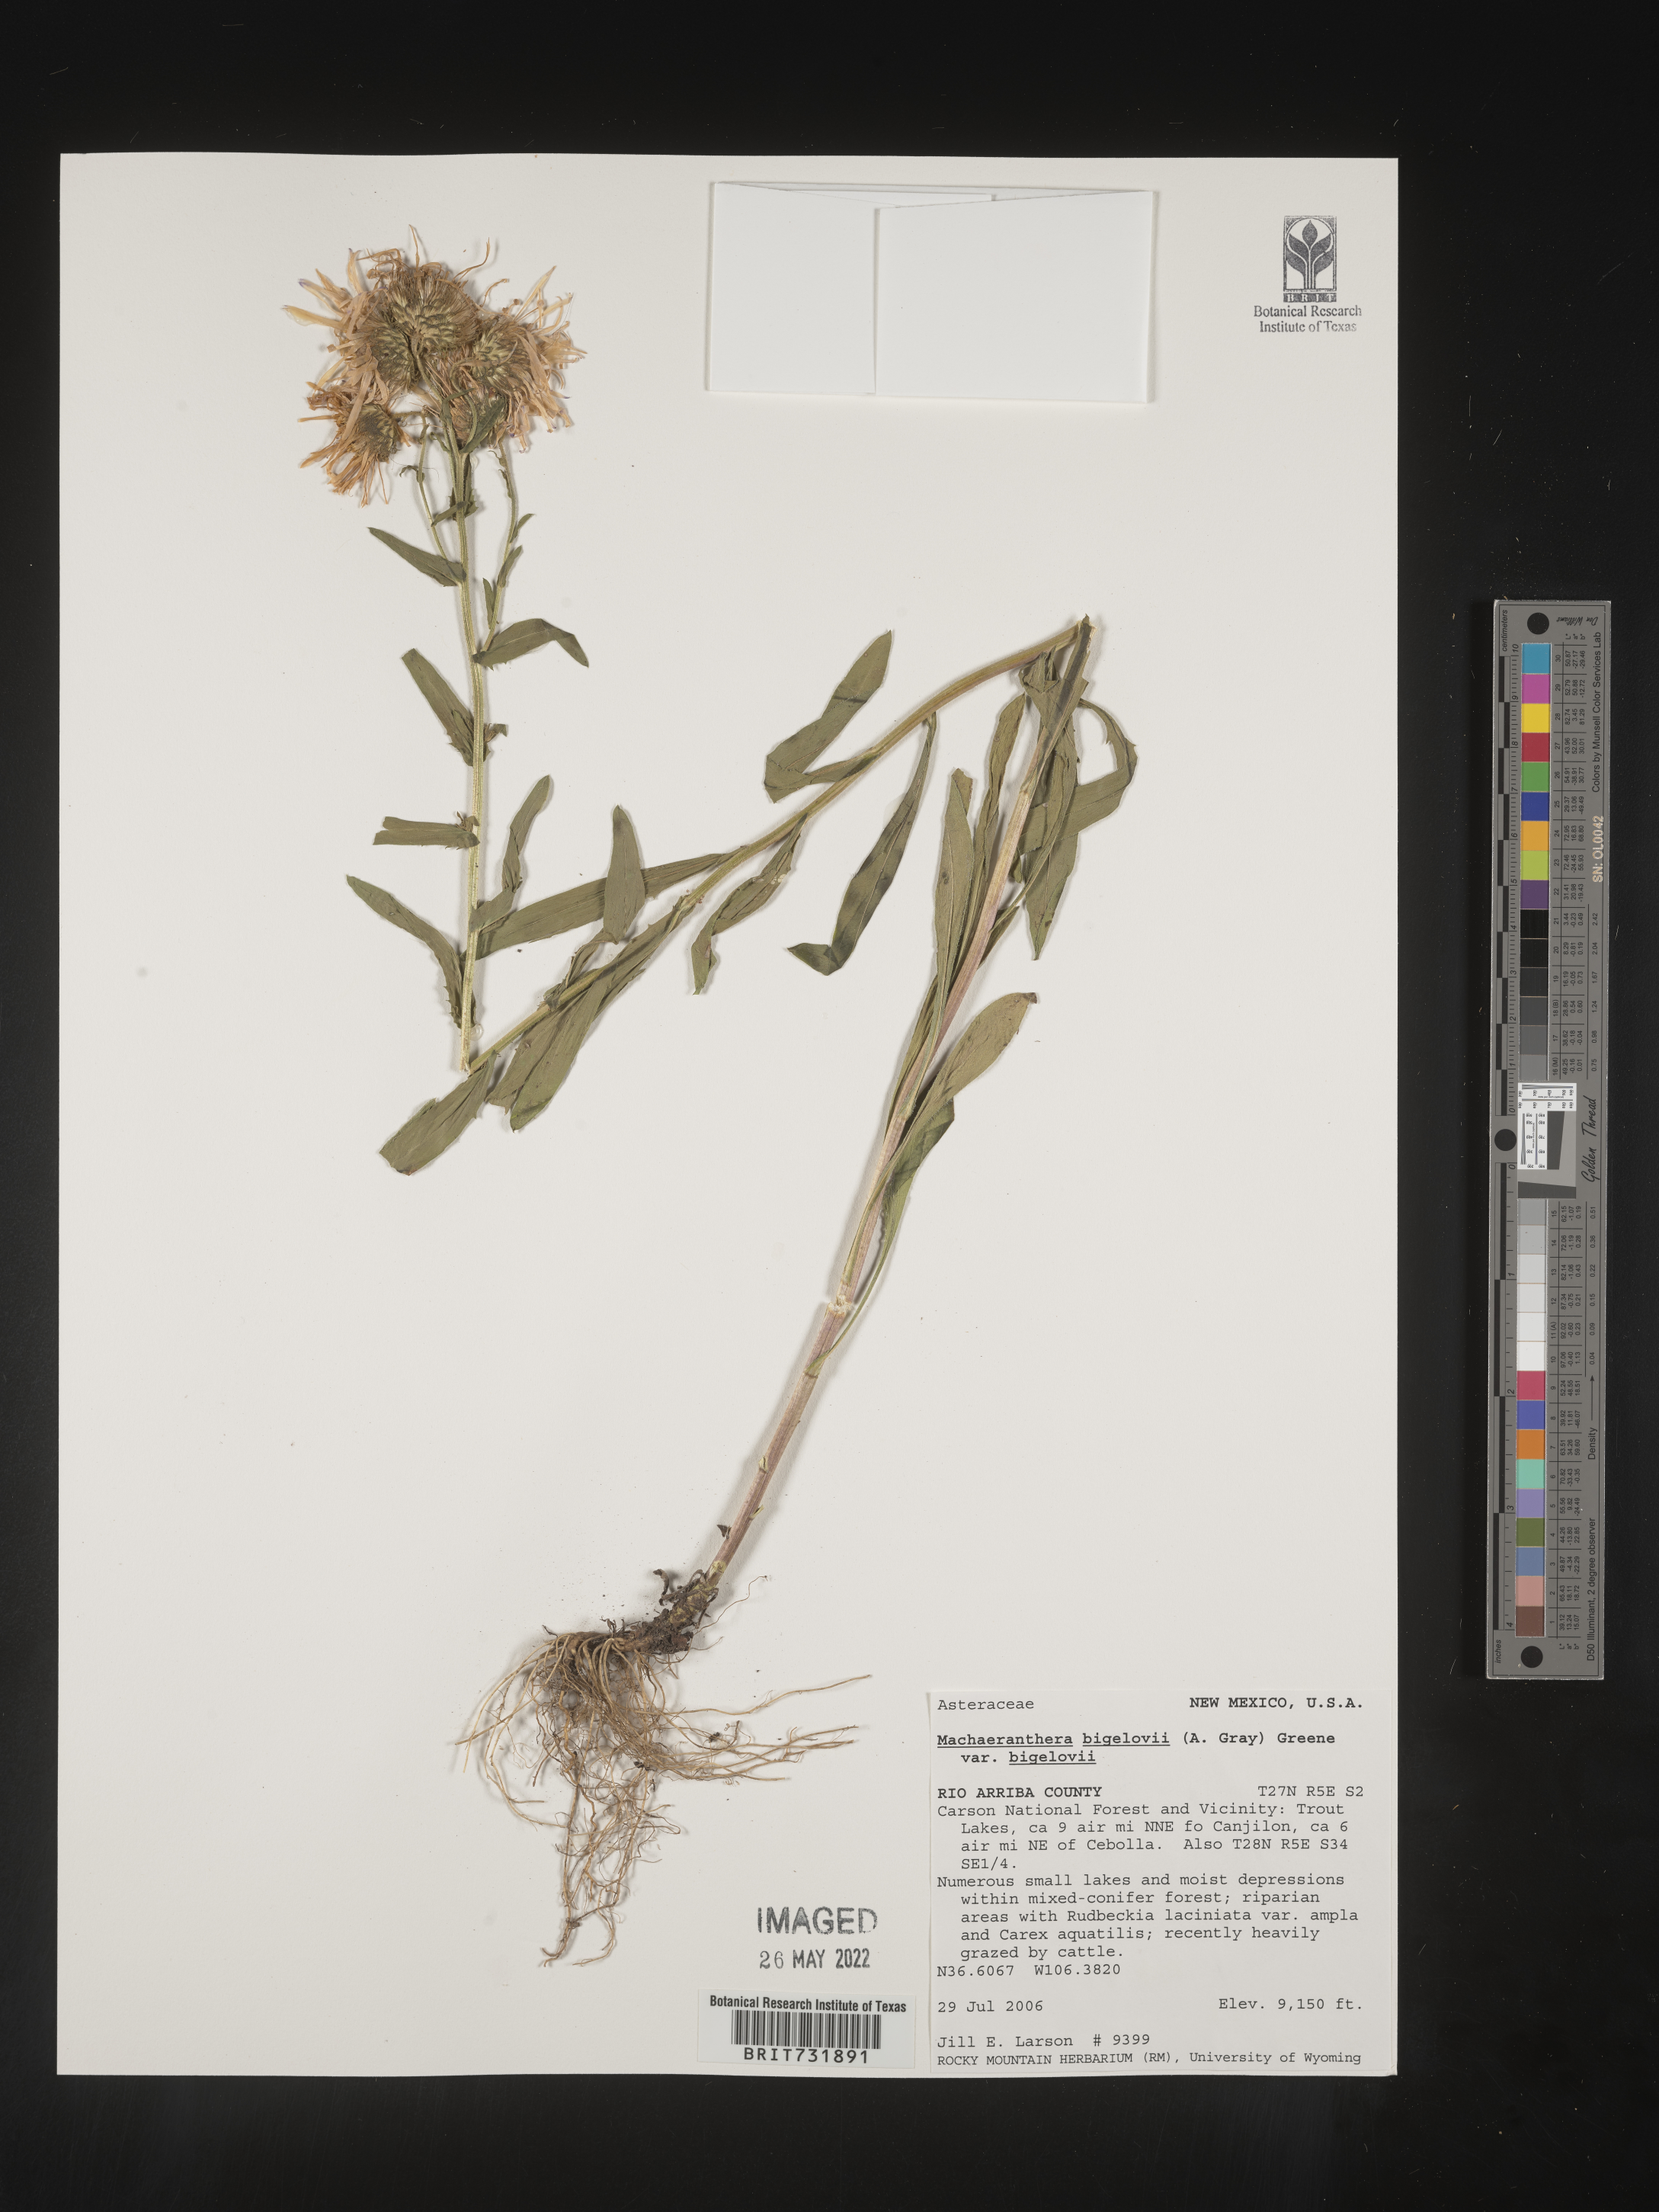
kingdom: Plantae
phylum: Tracheophyta
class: Magnoliopsida
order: Asterales
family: Asteraceae
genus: Dieteria
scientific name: Dieteria bigelovii
